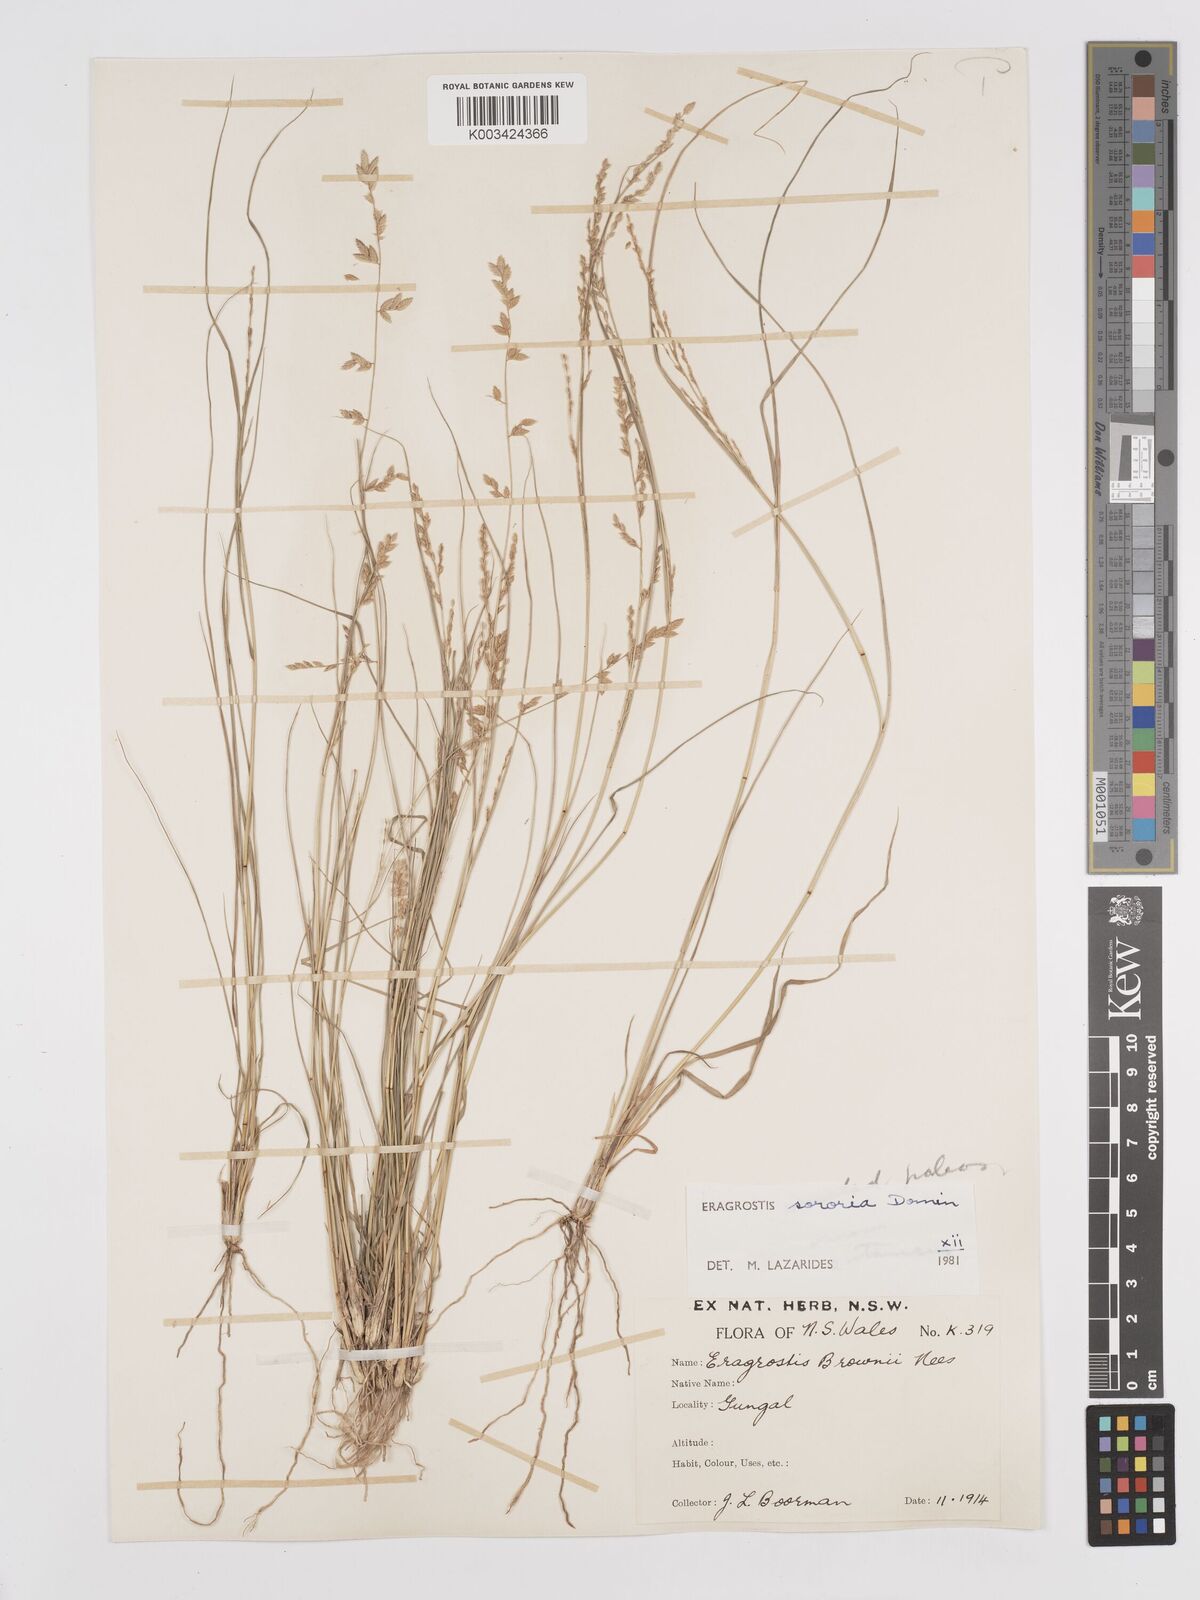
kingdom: Plantae
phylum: Tracheophyta
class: Liliopsida
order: Poales
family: Poaceae
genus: Eragrostis
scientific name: Eragrostis sororia
